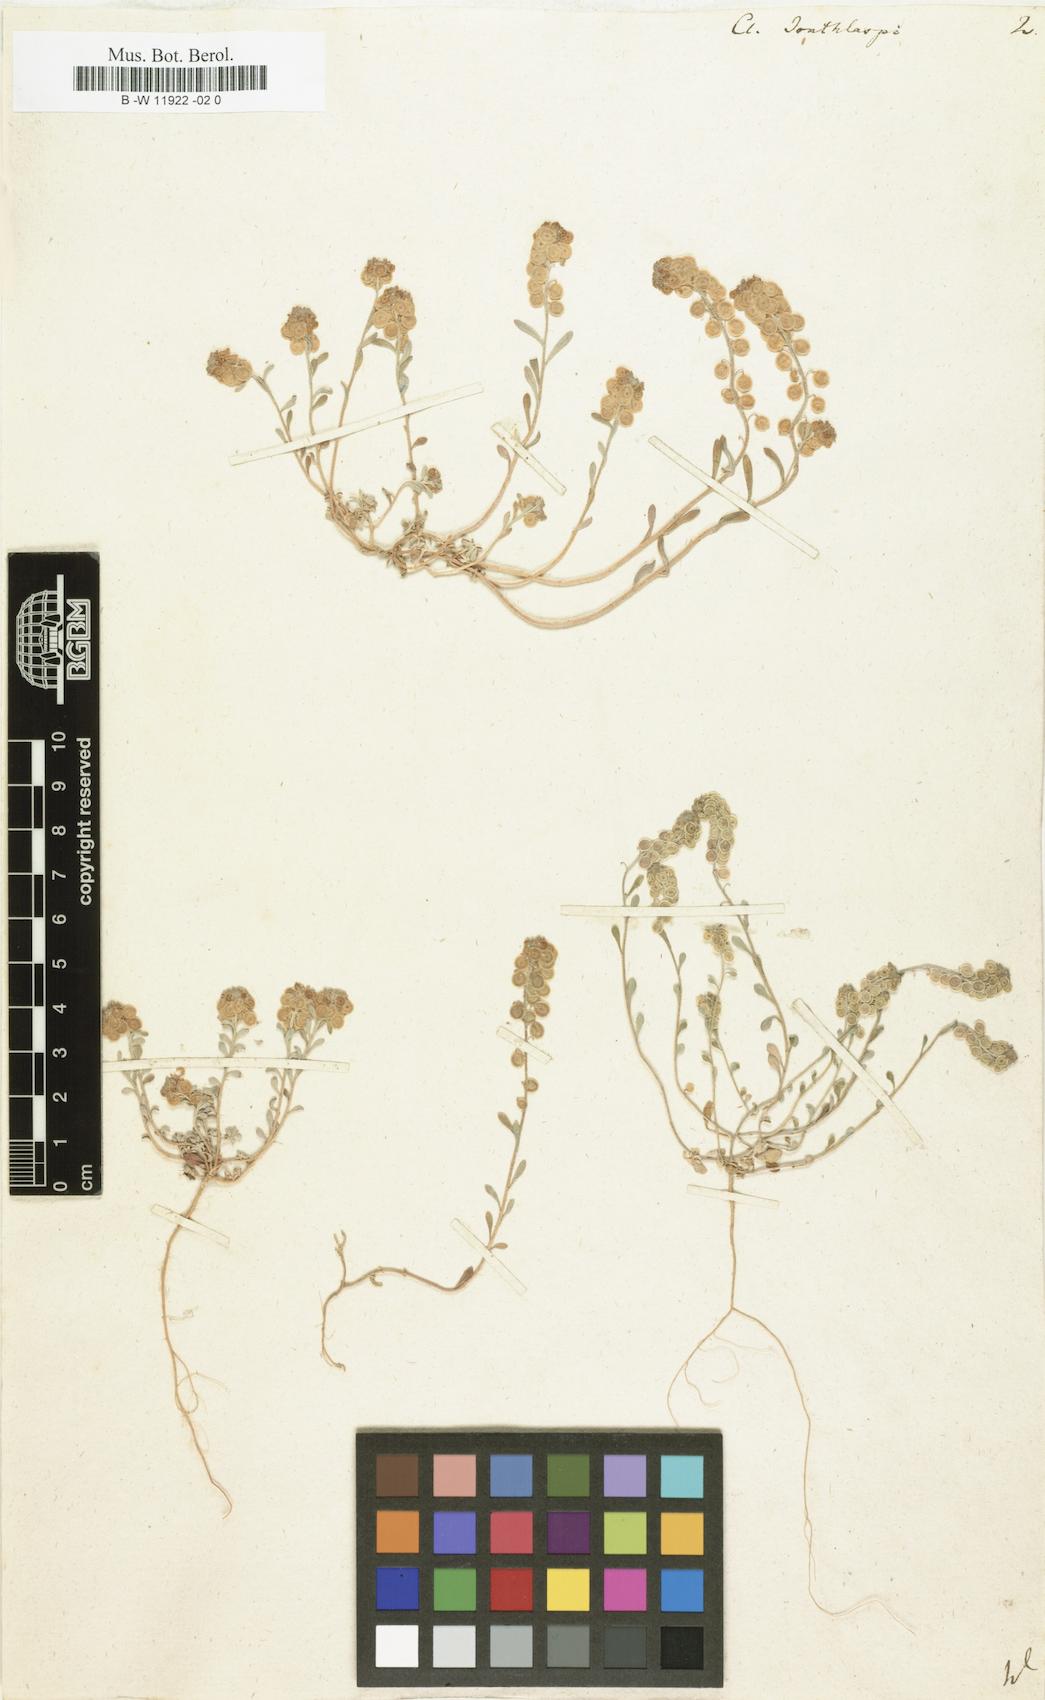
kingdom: Plantae
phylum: Tracheophyta
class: Magnoliopsida
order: Brassicales
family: Brassicaceae
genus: Clypeola
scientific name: Clypeola jonthlaspi
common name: Disk cress
